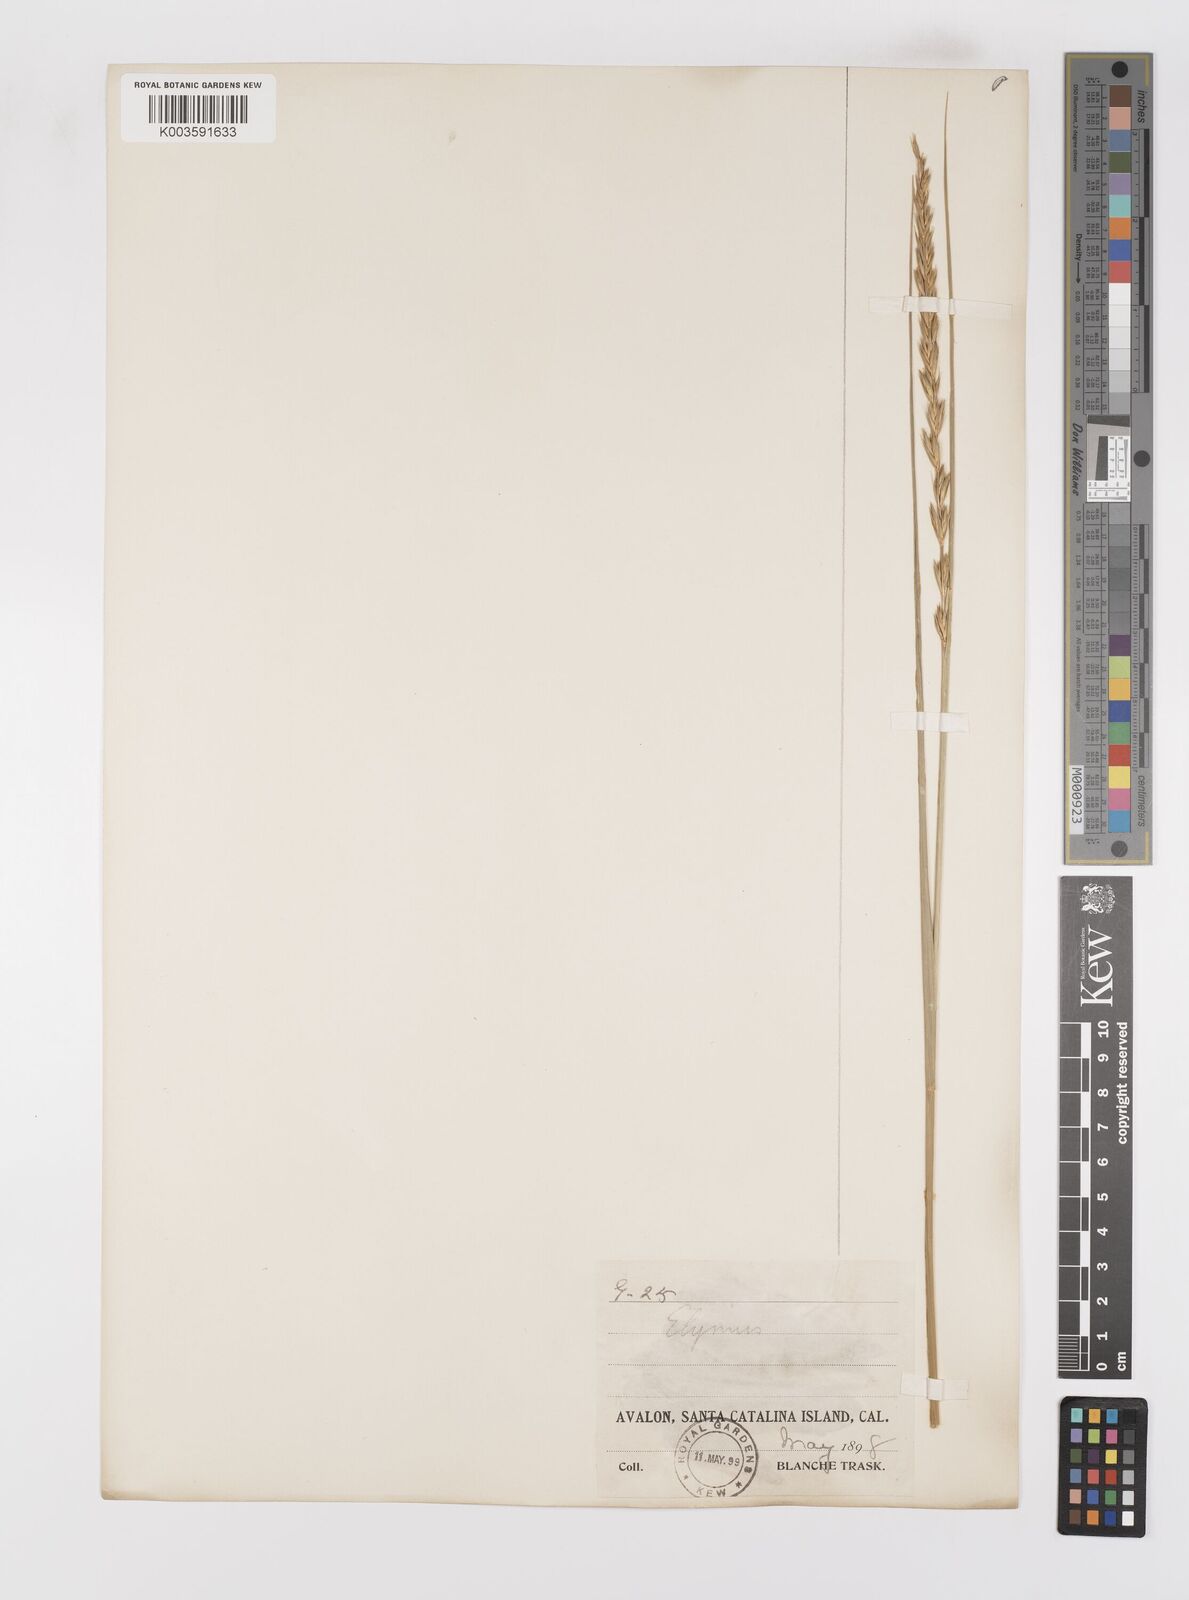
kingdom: Plantae
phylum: Tracheophyta
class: Liliopsida
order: Poales
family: Poaceae
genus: Leymus
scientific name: Leymus
